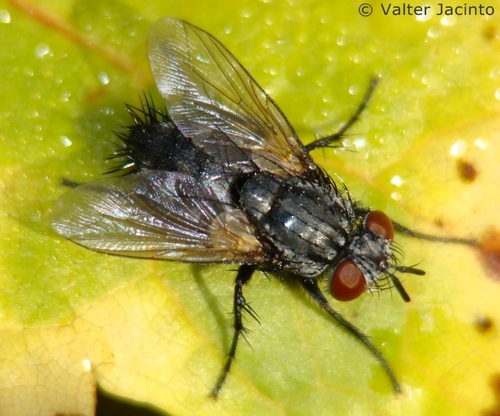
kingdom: Animalia
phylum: Arthropoda
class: Insecta
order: Diptera
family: Tachinidae
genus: Voria
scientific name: Voria ruralis
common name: Parasitic fly
